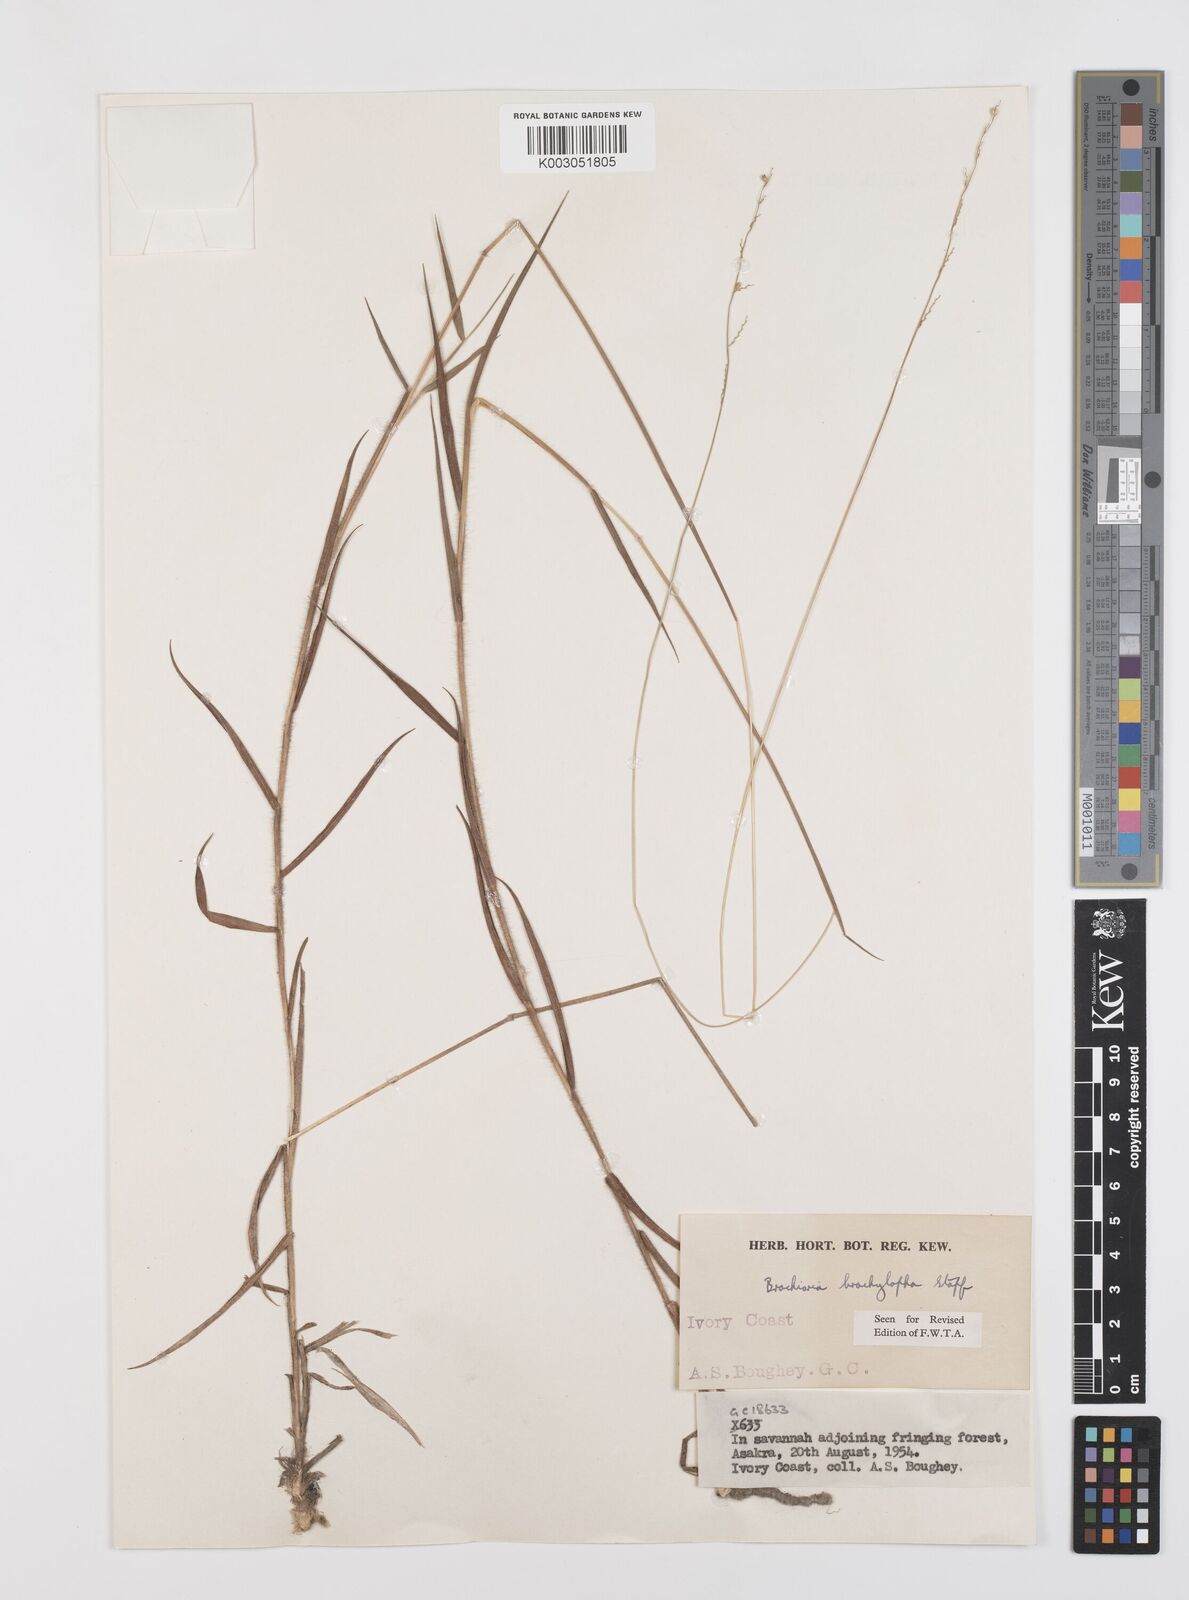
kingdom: Plantae
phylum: Tracheophyta
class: Liliopsida
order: Poales
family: Poaceae
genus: Urochloa
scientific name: Urochloa serrata
